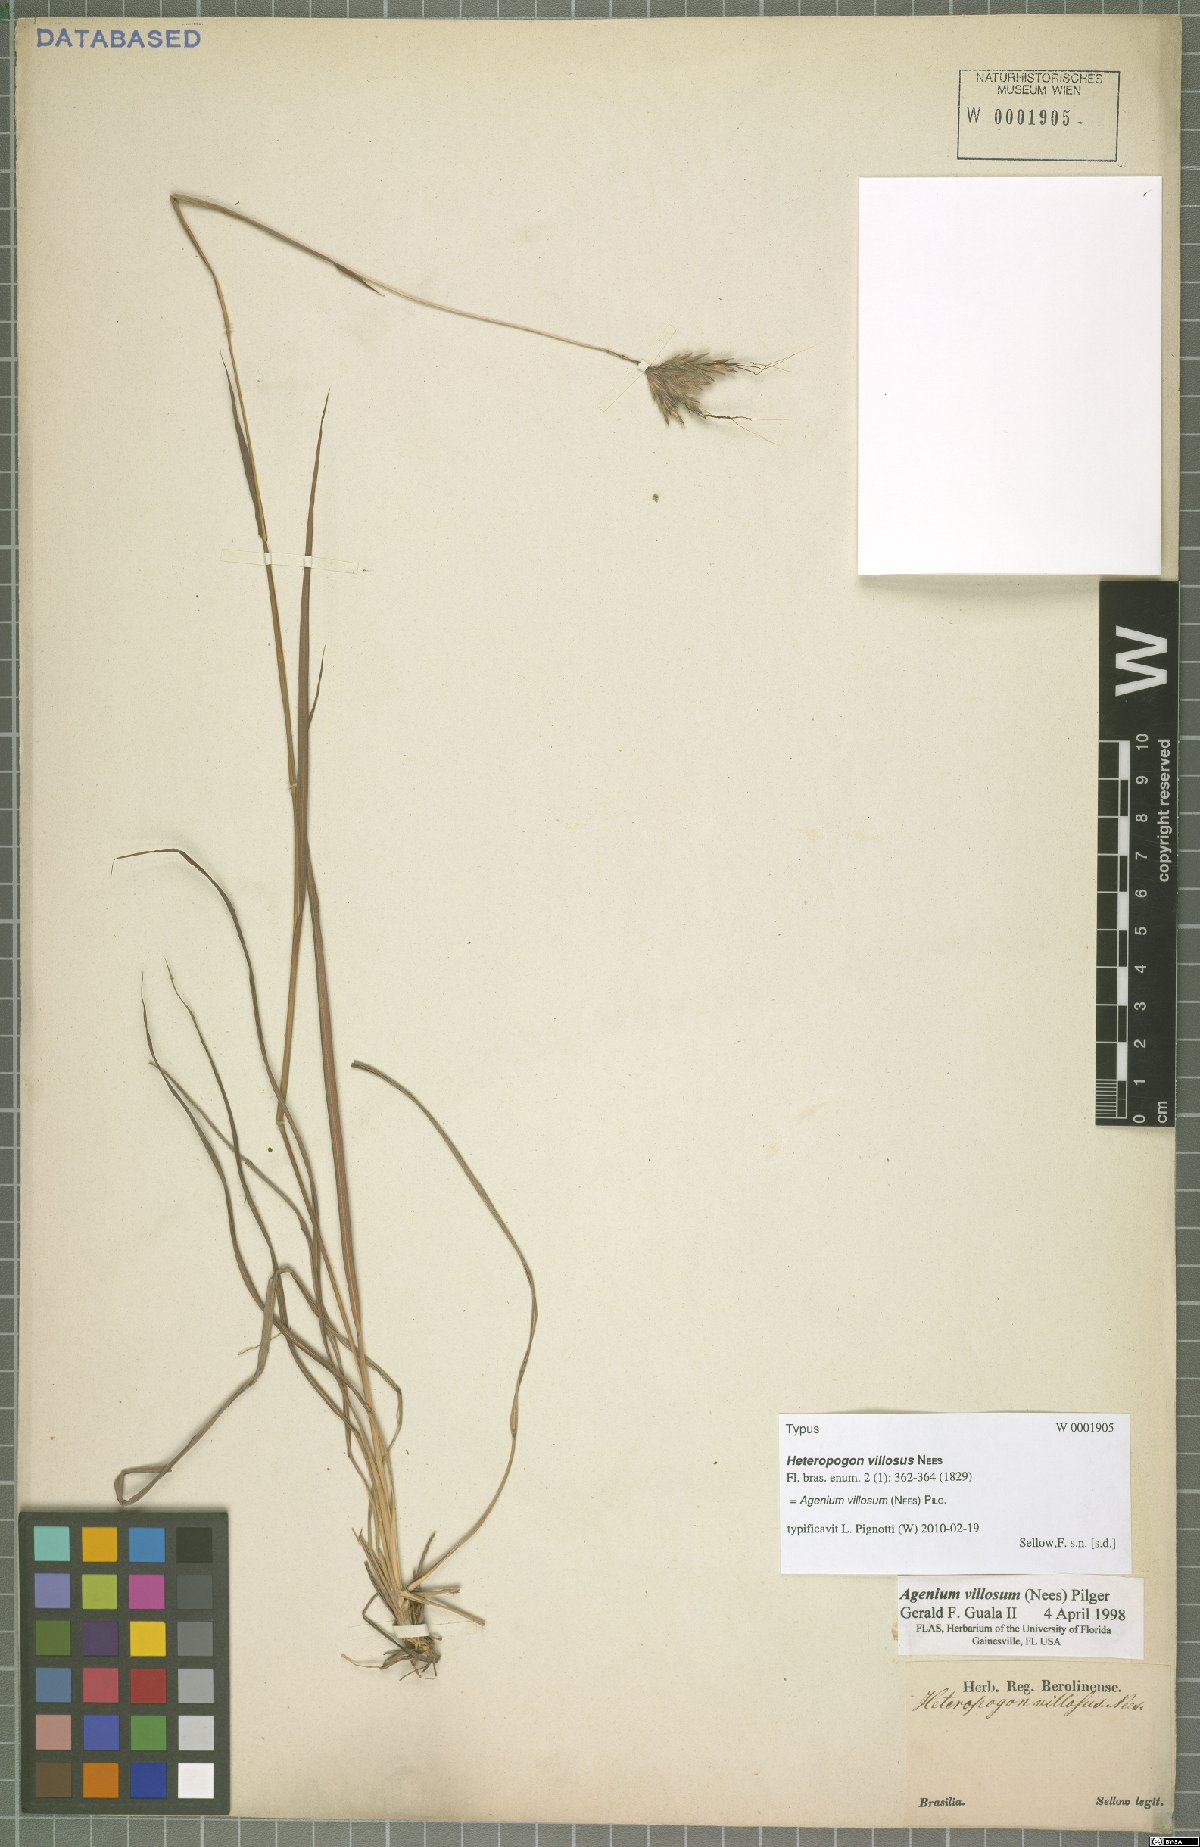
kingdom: Plantae
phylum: Tracheophyta
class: Liliopsida
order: Poales
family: Poaceae
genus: Agenium
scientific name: Agenium villosum
